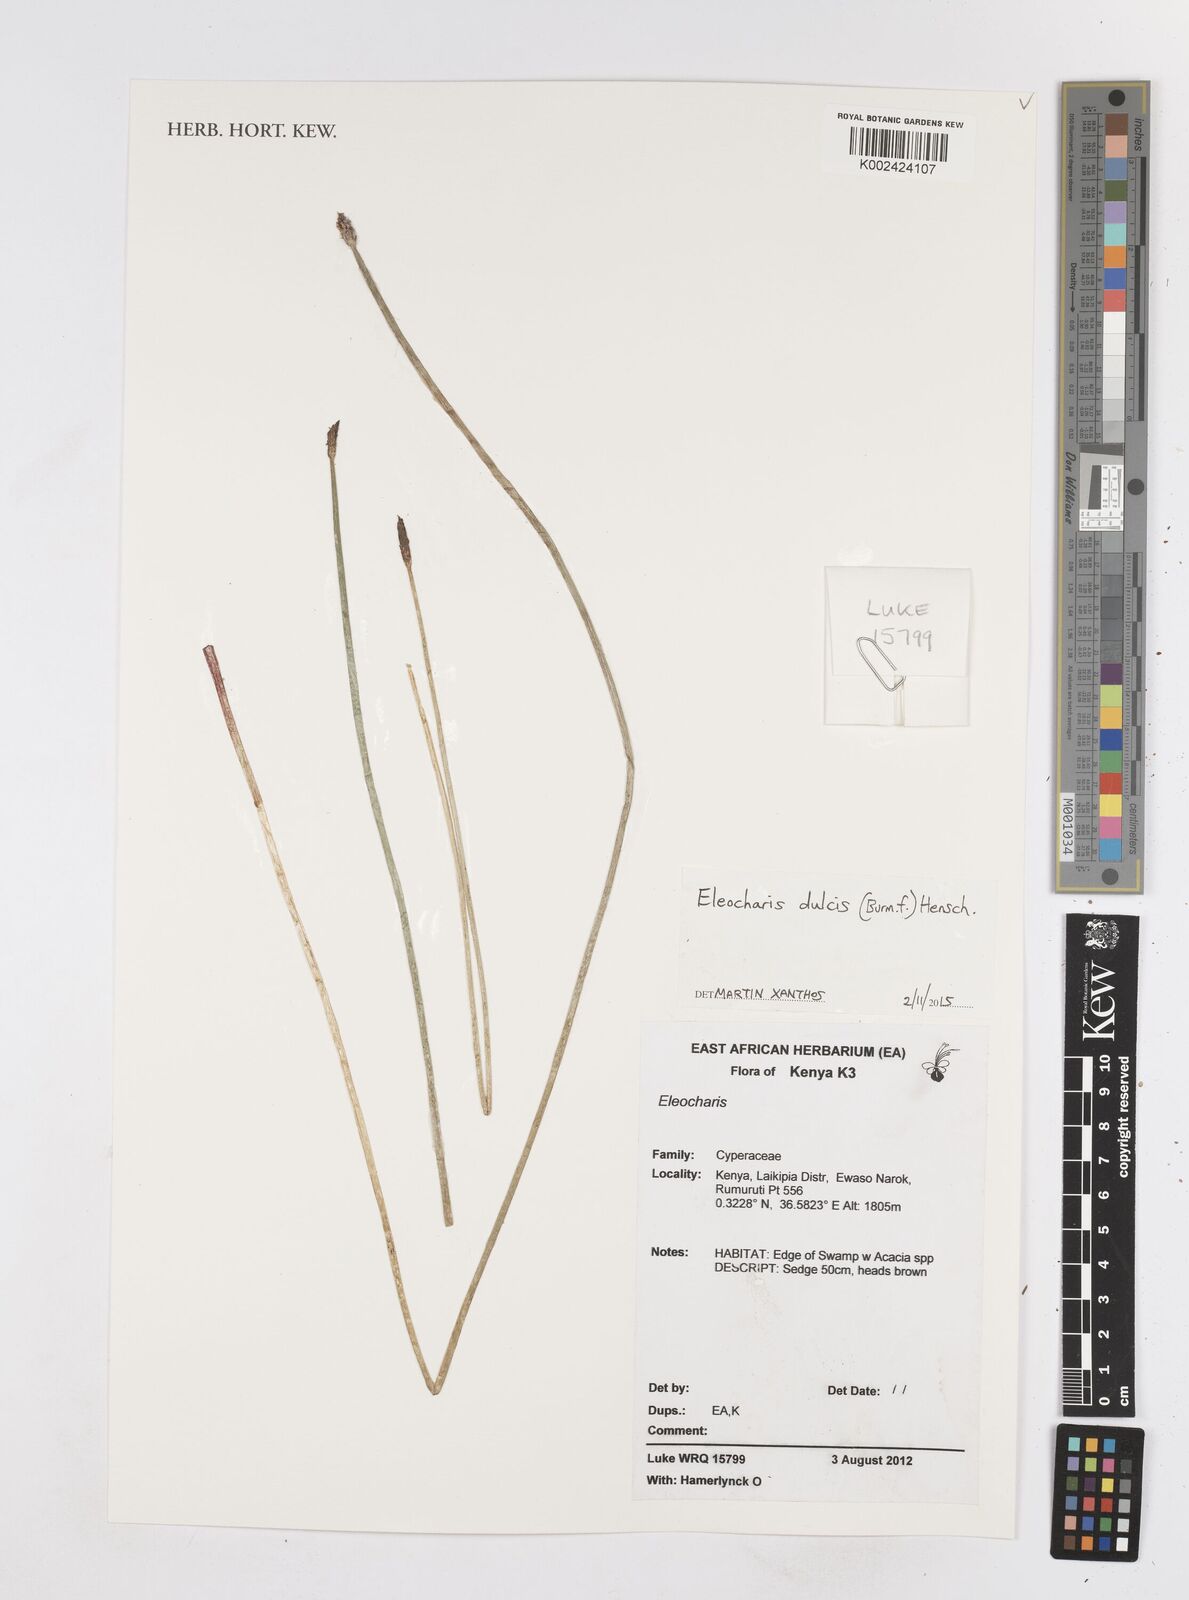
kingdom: Plantae
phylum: Tracheophyta
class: Liliopsida
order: Poales
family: Cyperaceae
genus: Eleocharis
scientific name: Eleocharis dulcis
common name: Chinese water chestnut
